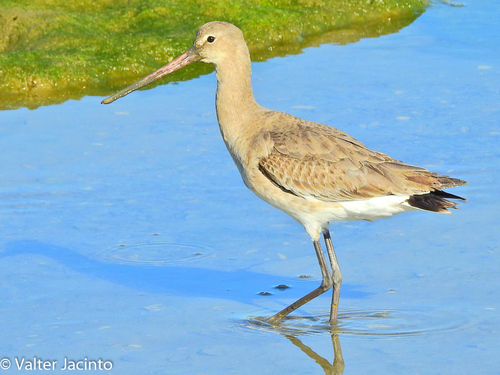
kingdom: Animalia
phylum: Chordata
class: Aves
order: Charadriiformes
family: Scolopacidae
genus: Limosa
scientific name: Limosa limosa
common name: Black-tailed godwit
